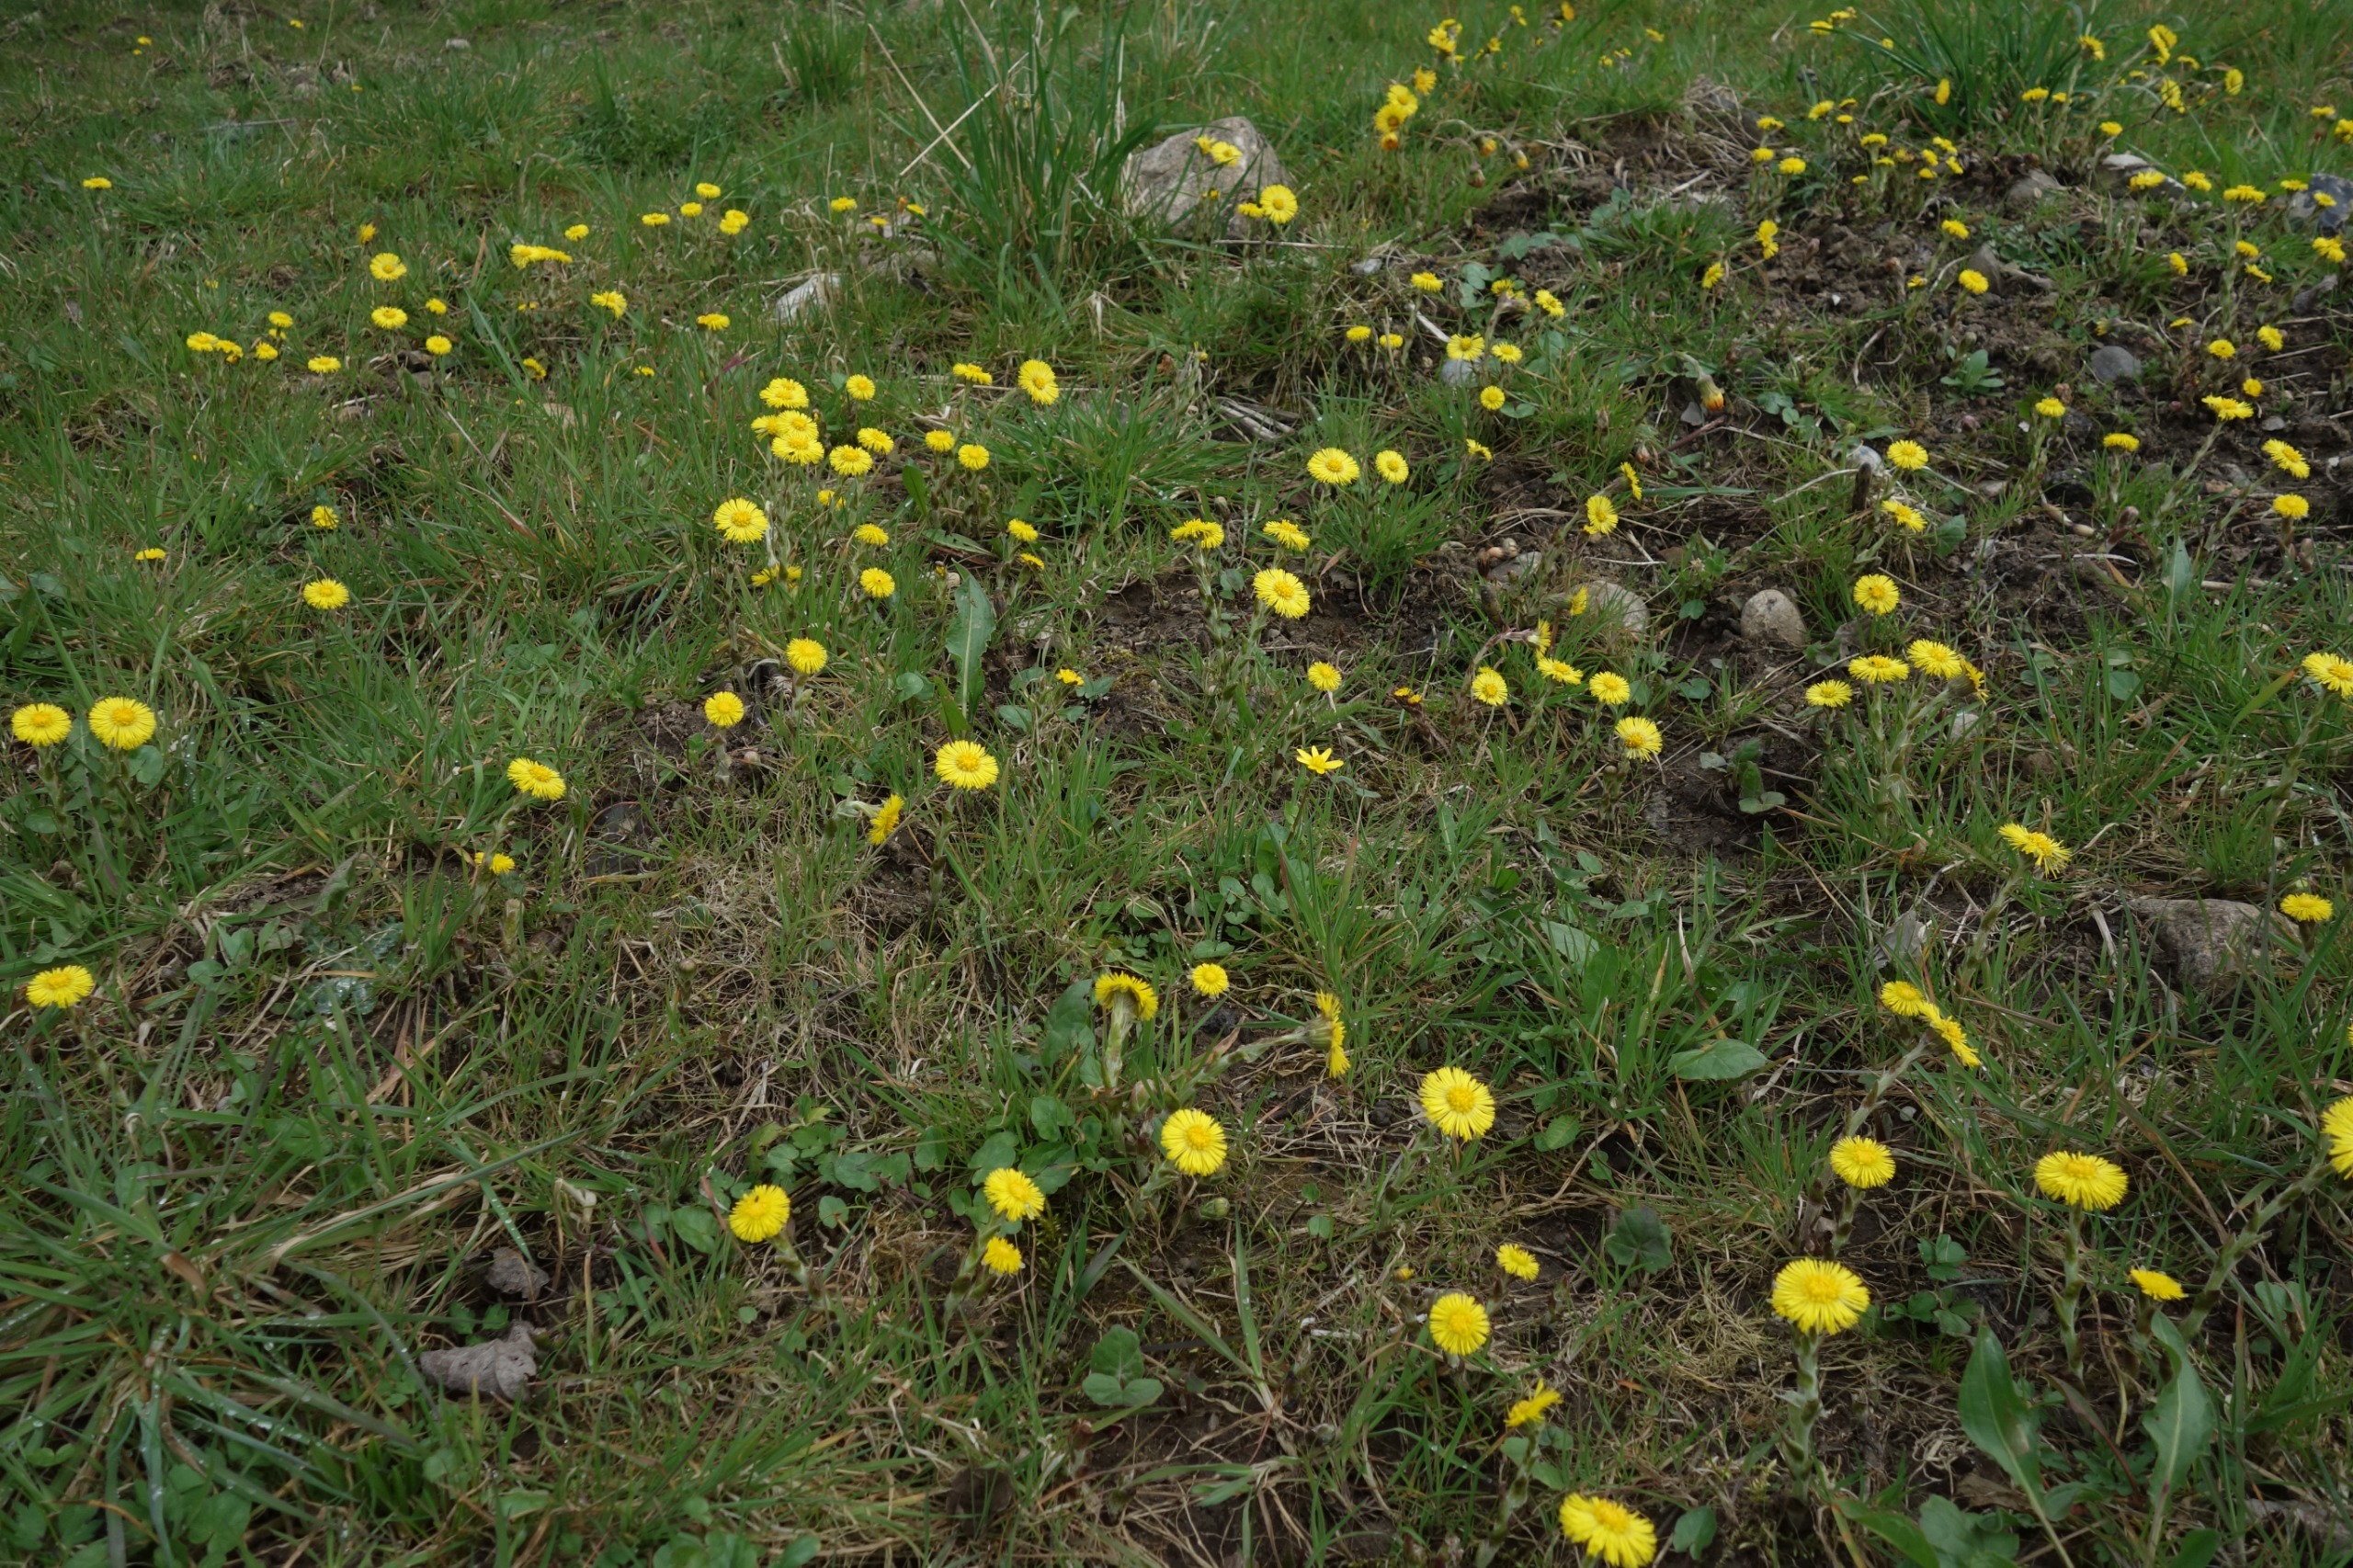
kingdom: Plantae
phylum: Tracheophyta
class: Magnoliopsida
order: Asterales
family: Asteraceae
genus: Tussilago
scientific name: Tussilago farfara
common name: Følfod
